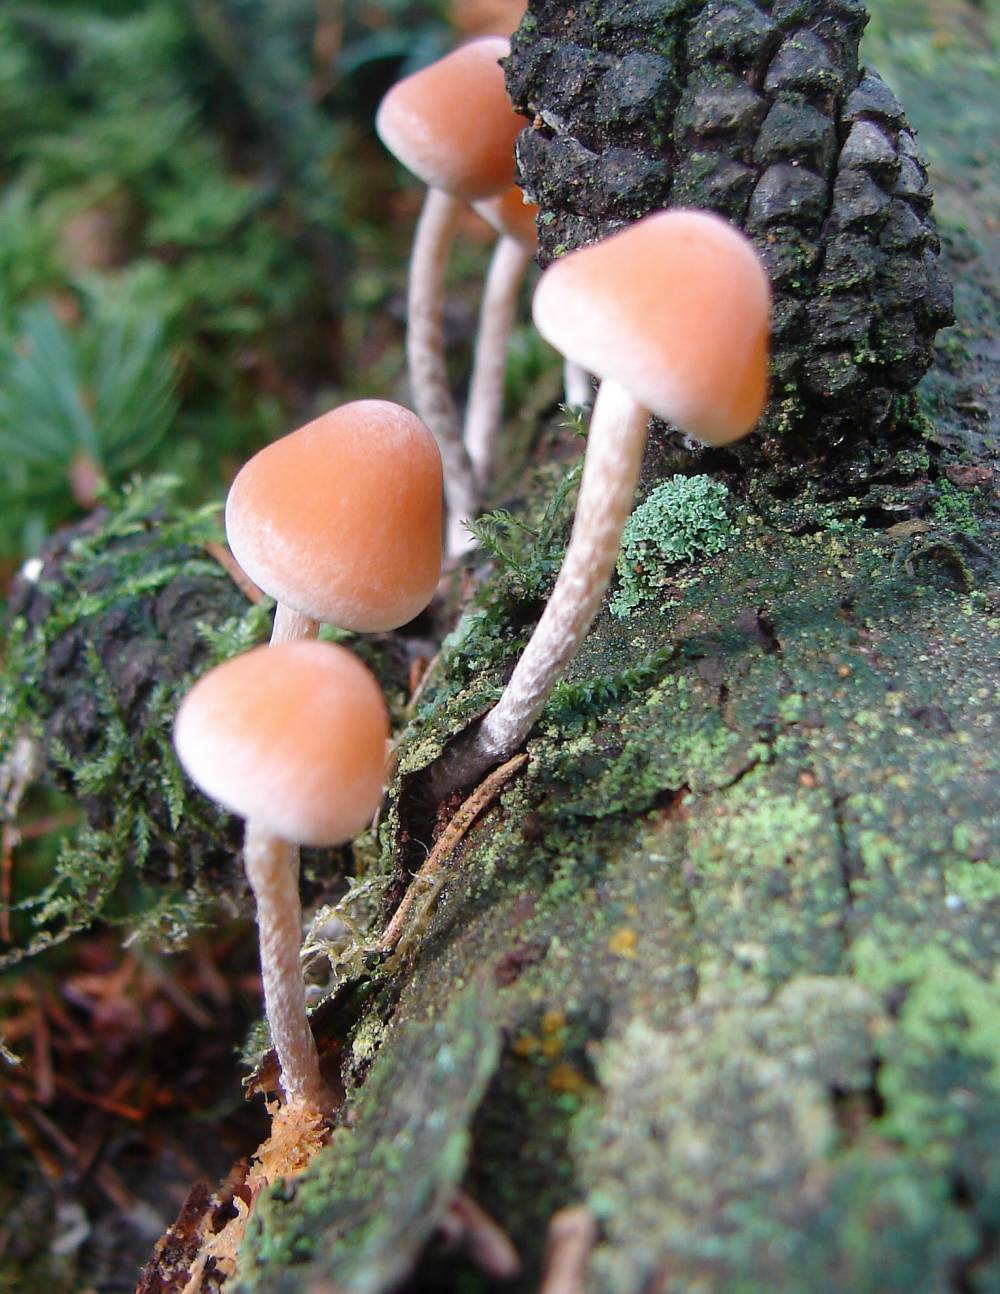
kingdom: Fungi
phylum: Basidiomycota
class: Agaricomycetes
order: Agaricales
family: Strophariaceae
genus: Hypholoma
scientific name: Hypholoma marginatum
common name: enlig svovlhat
